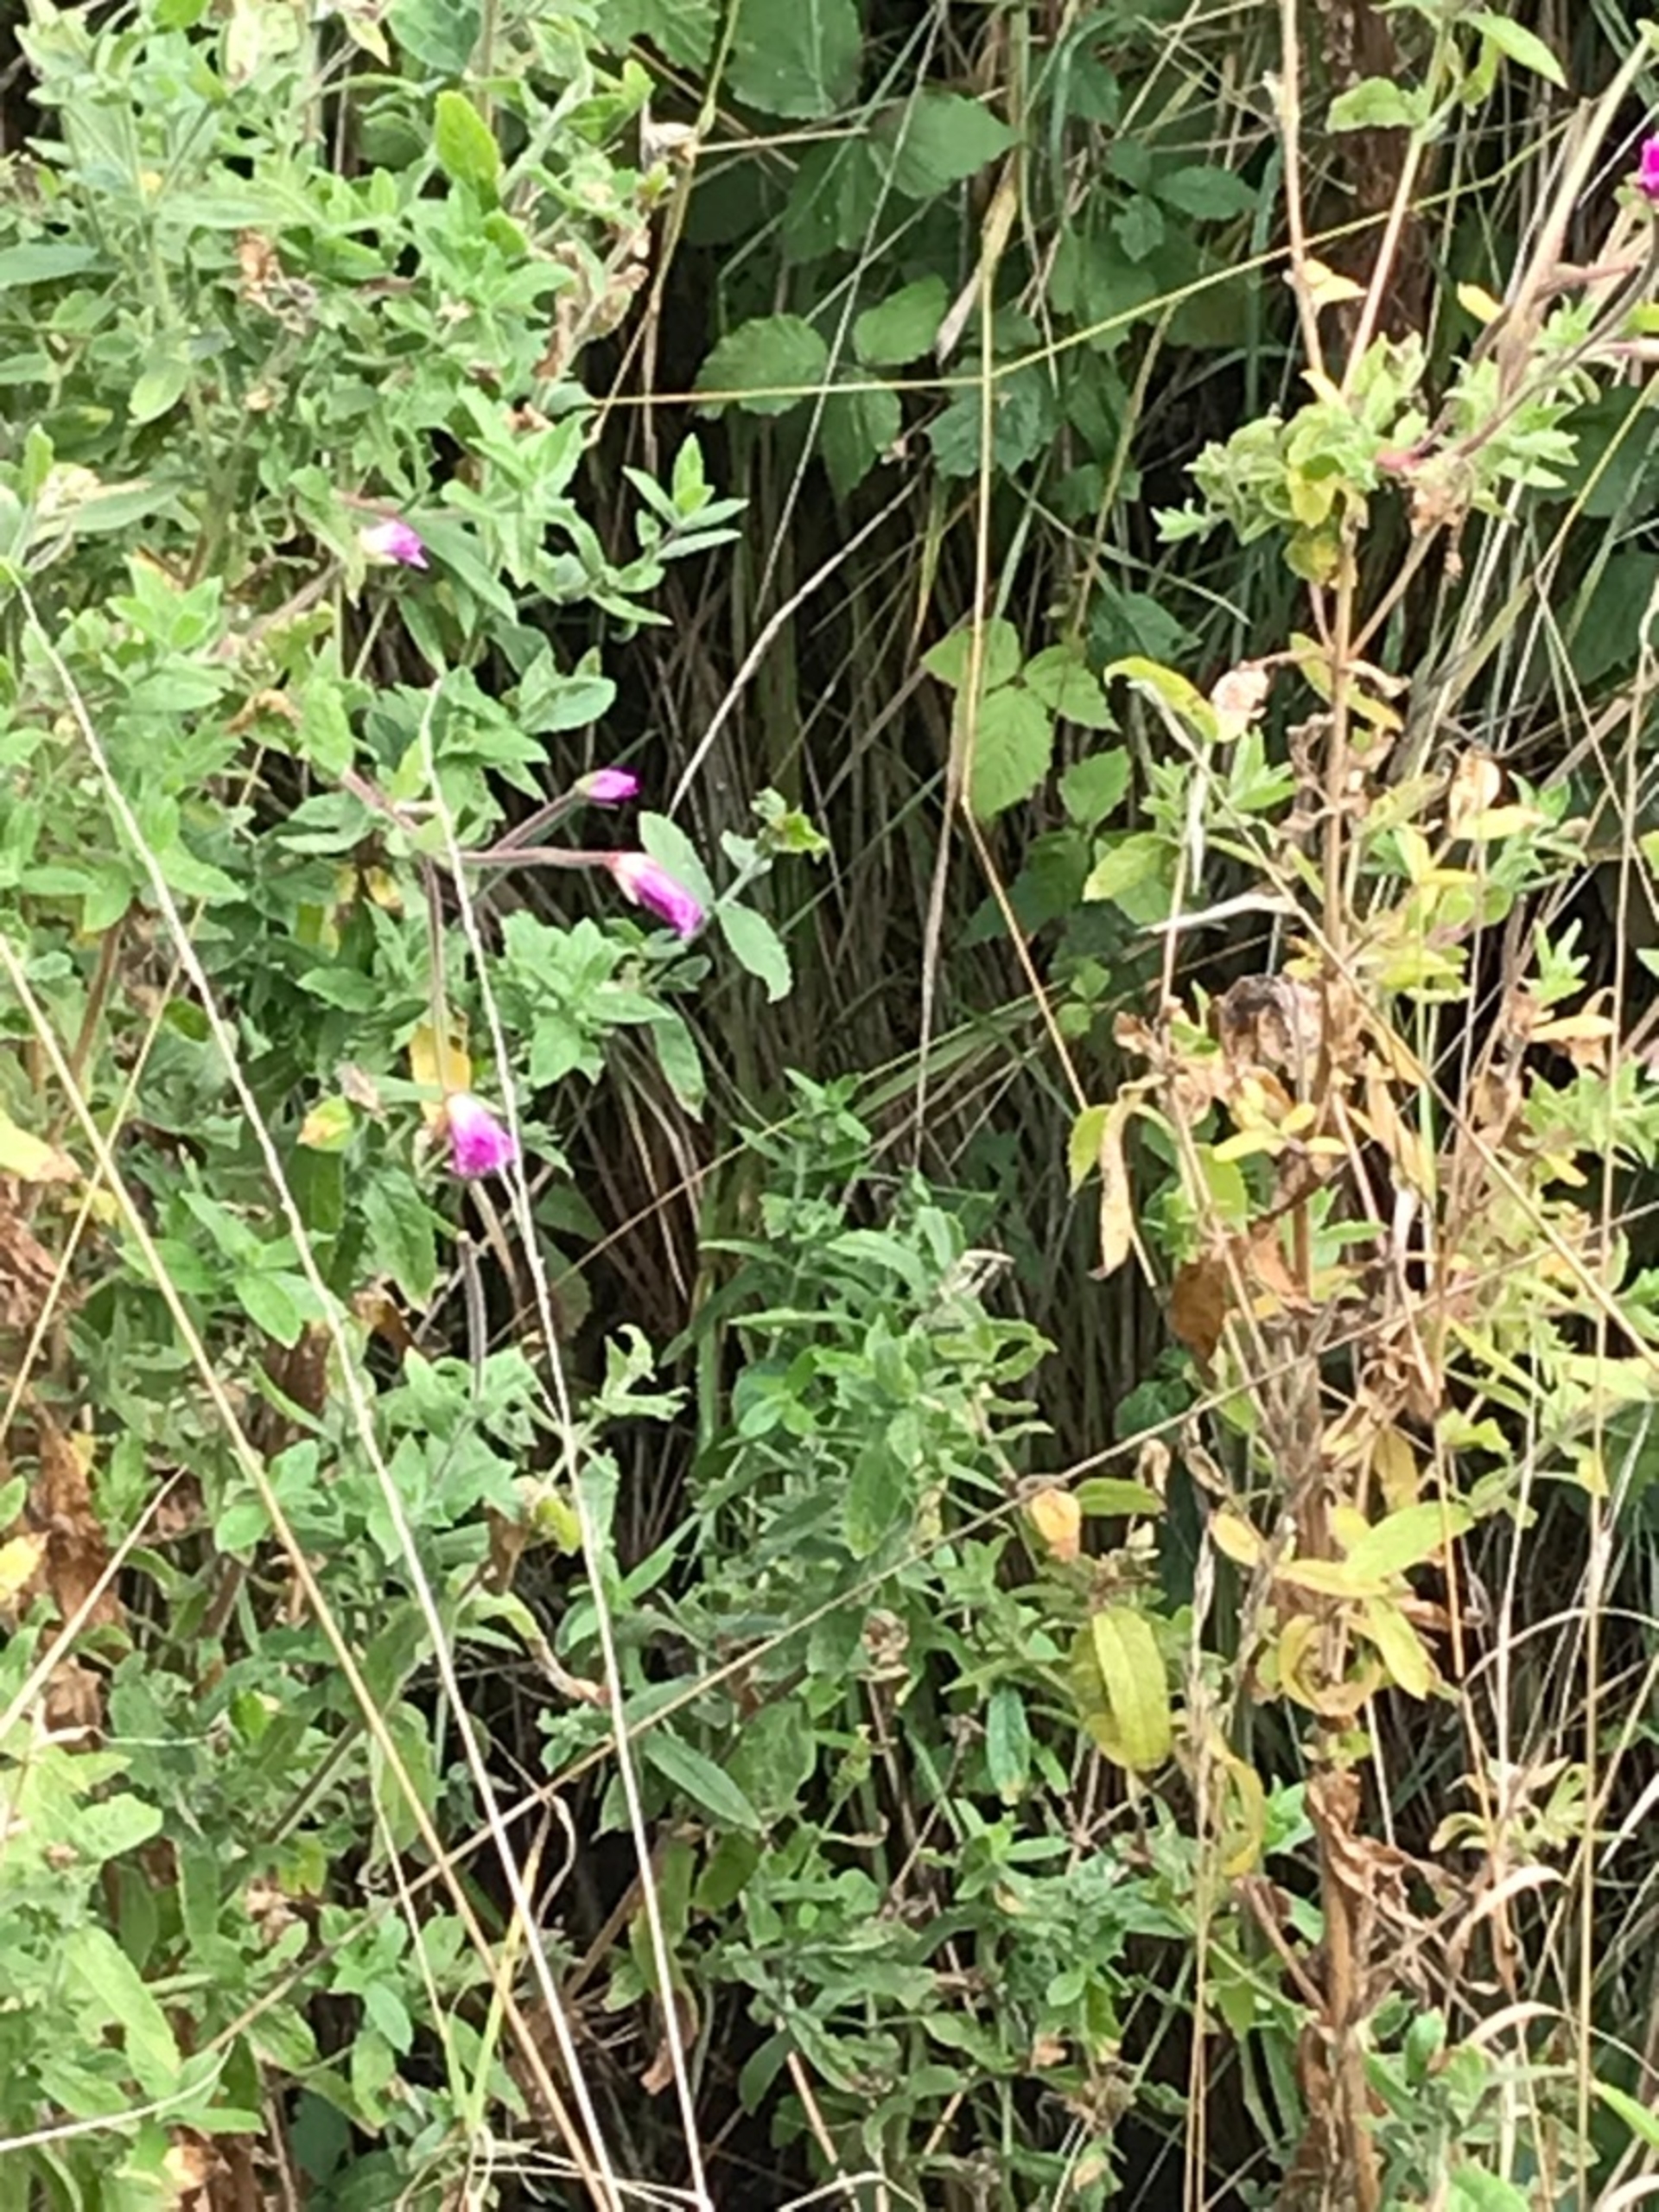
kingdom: Plantae
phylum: Tracheophyta
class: Magnoliopsida
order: Myrtales
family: Onagraceae
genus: Epilobium
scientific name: Epilobium hirsutum
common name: Lådden dueurt
